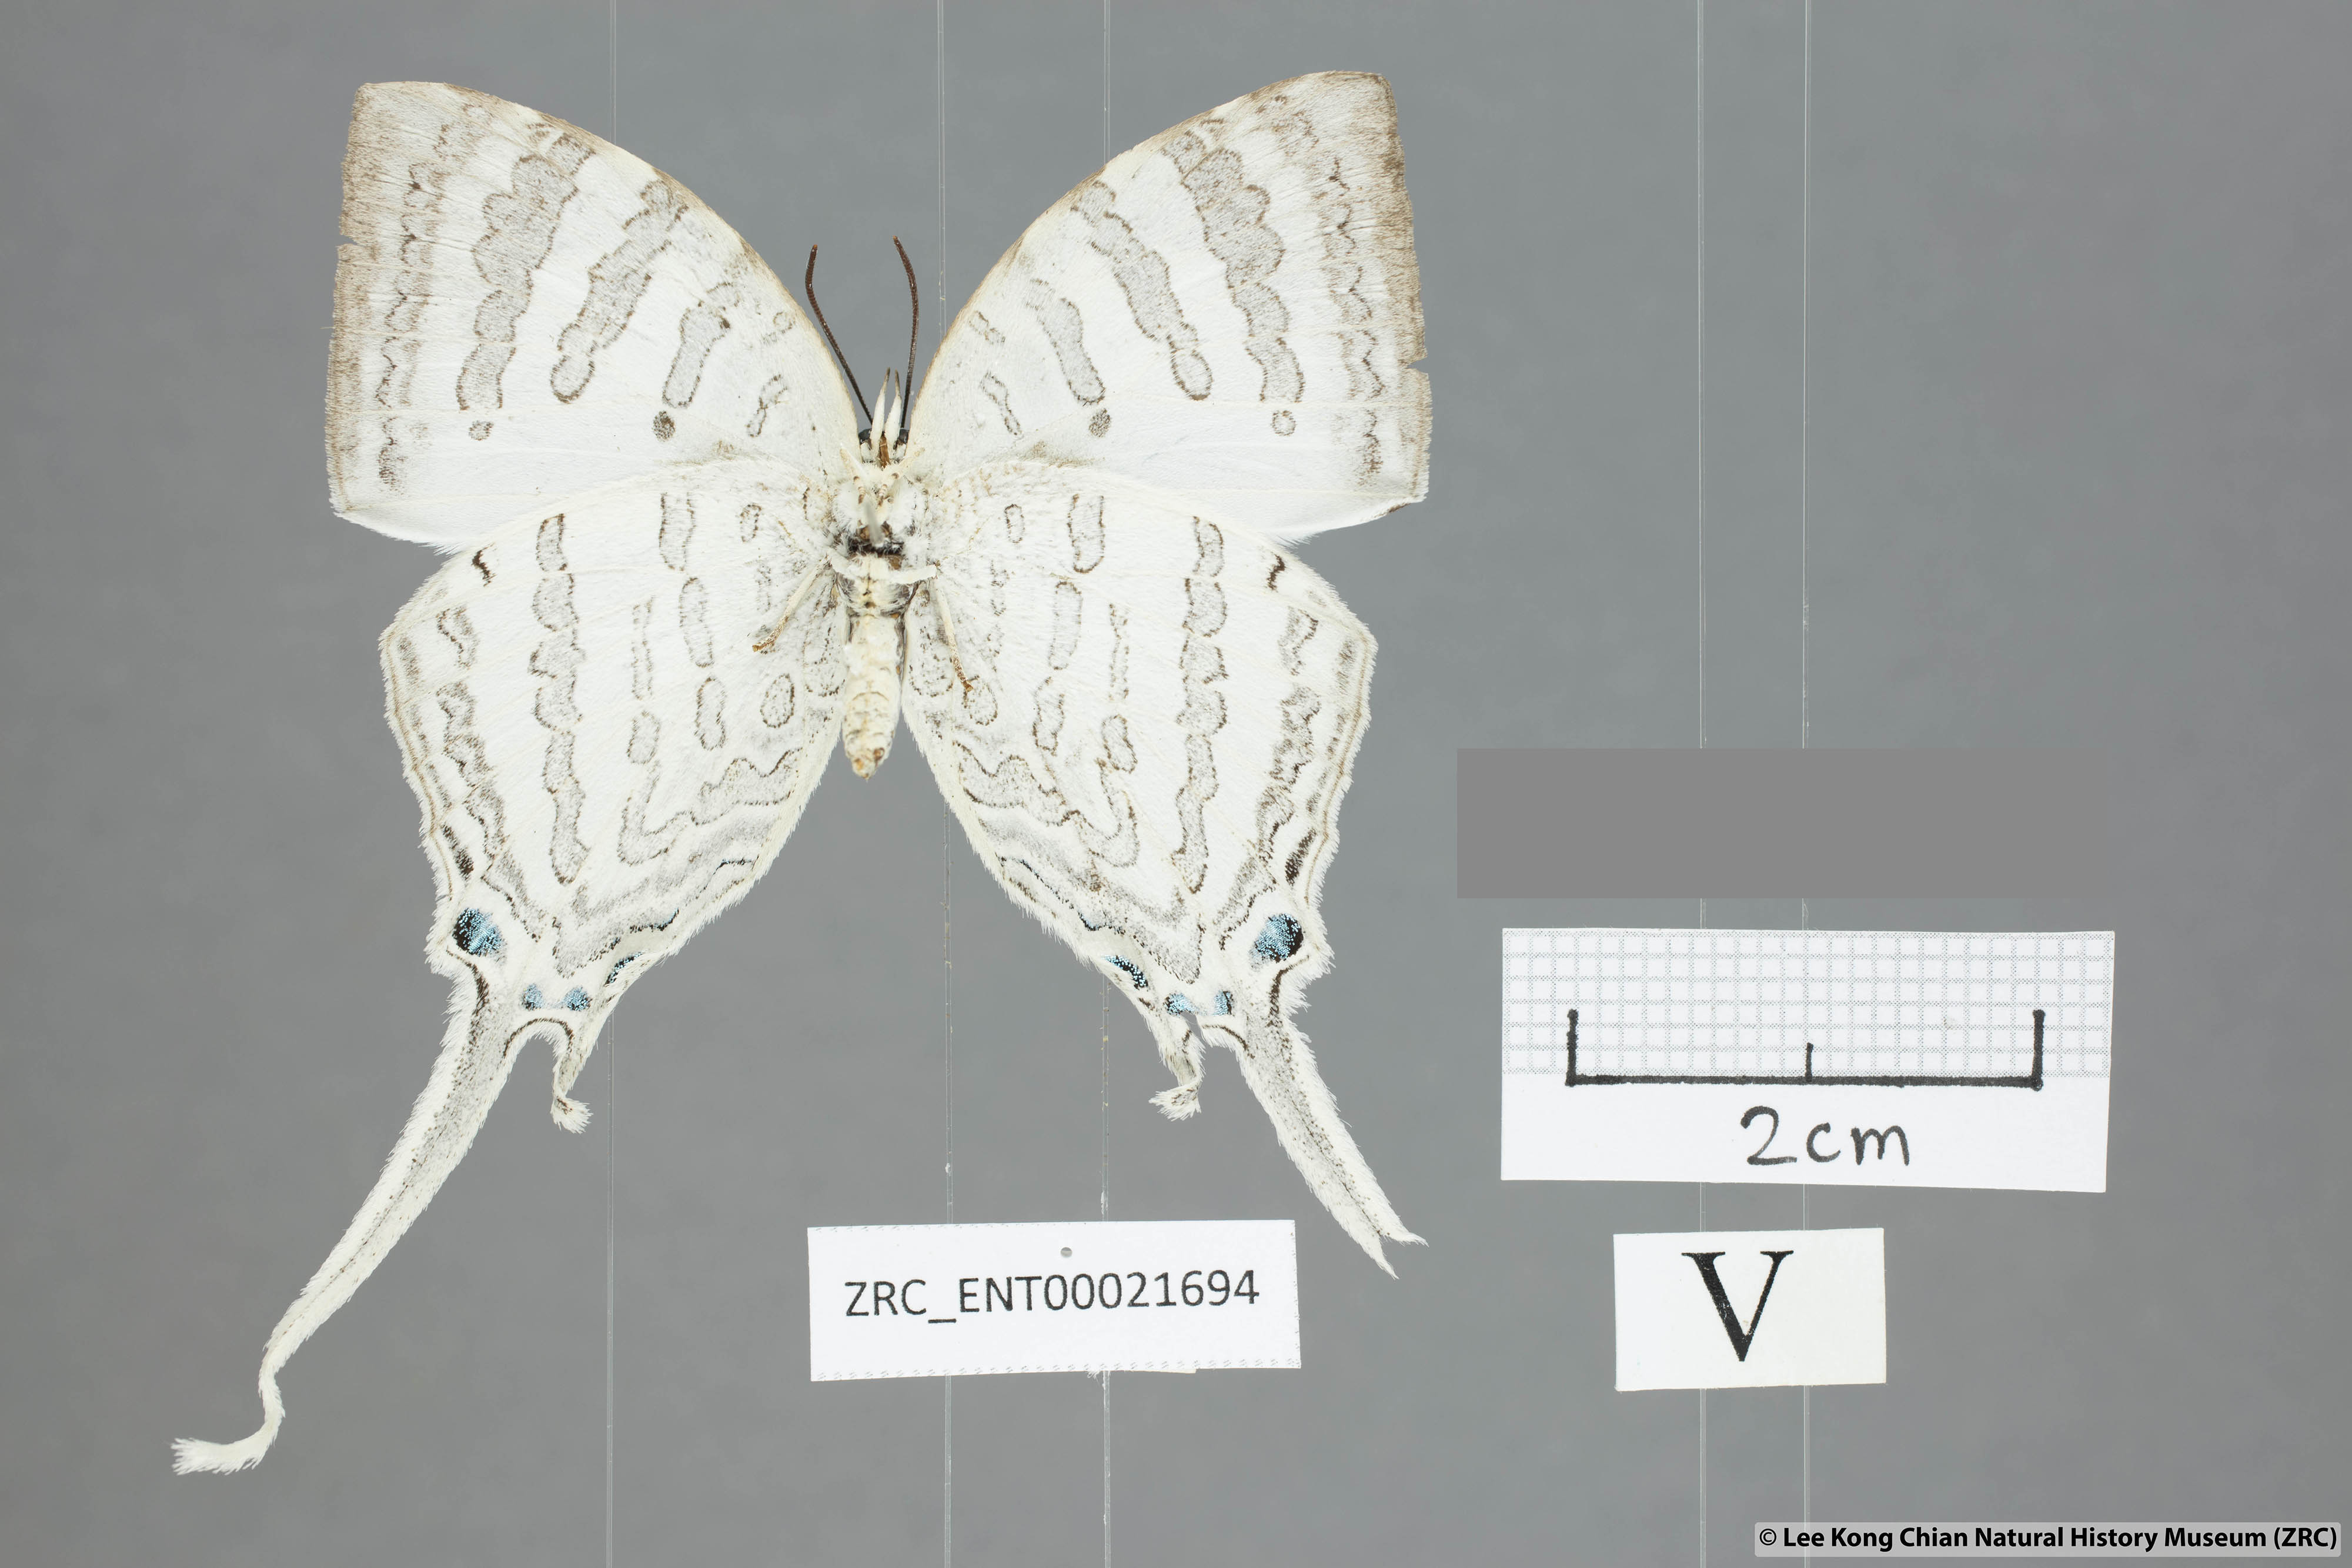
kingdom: Animalia
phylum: Arthropoda
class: Insecta
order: Lepidoptera
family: Lycaenidae
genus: Neomyrina
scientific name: Neomyrina nivea
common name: White imperial butterfly
